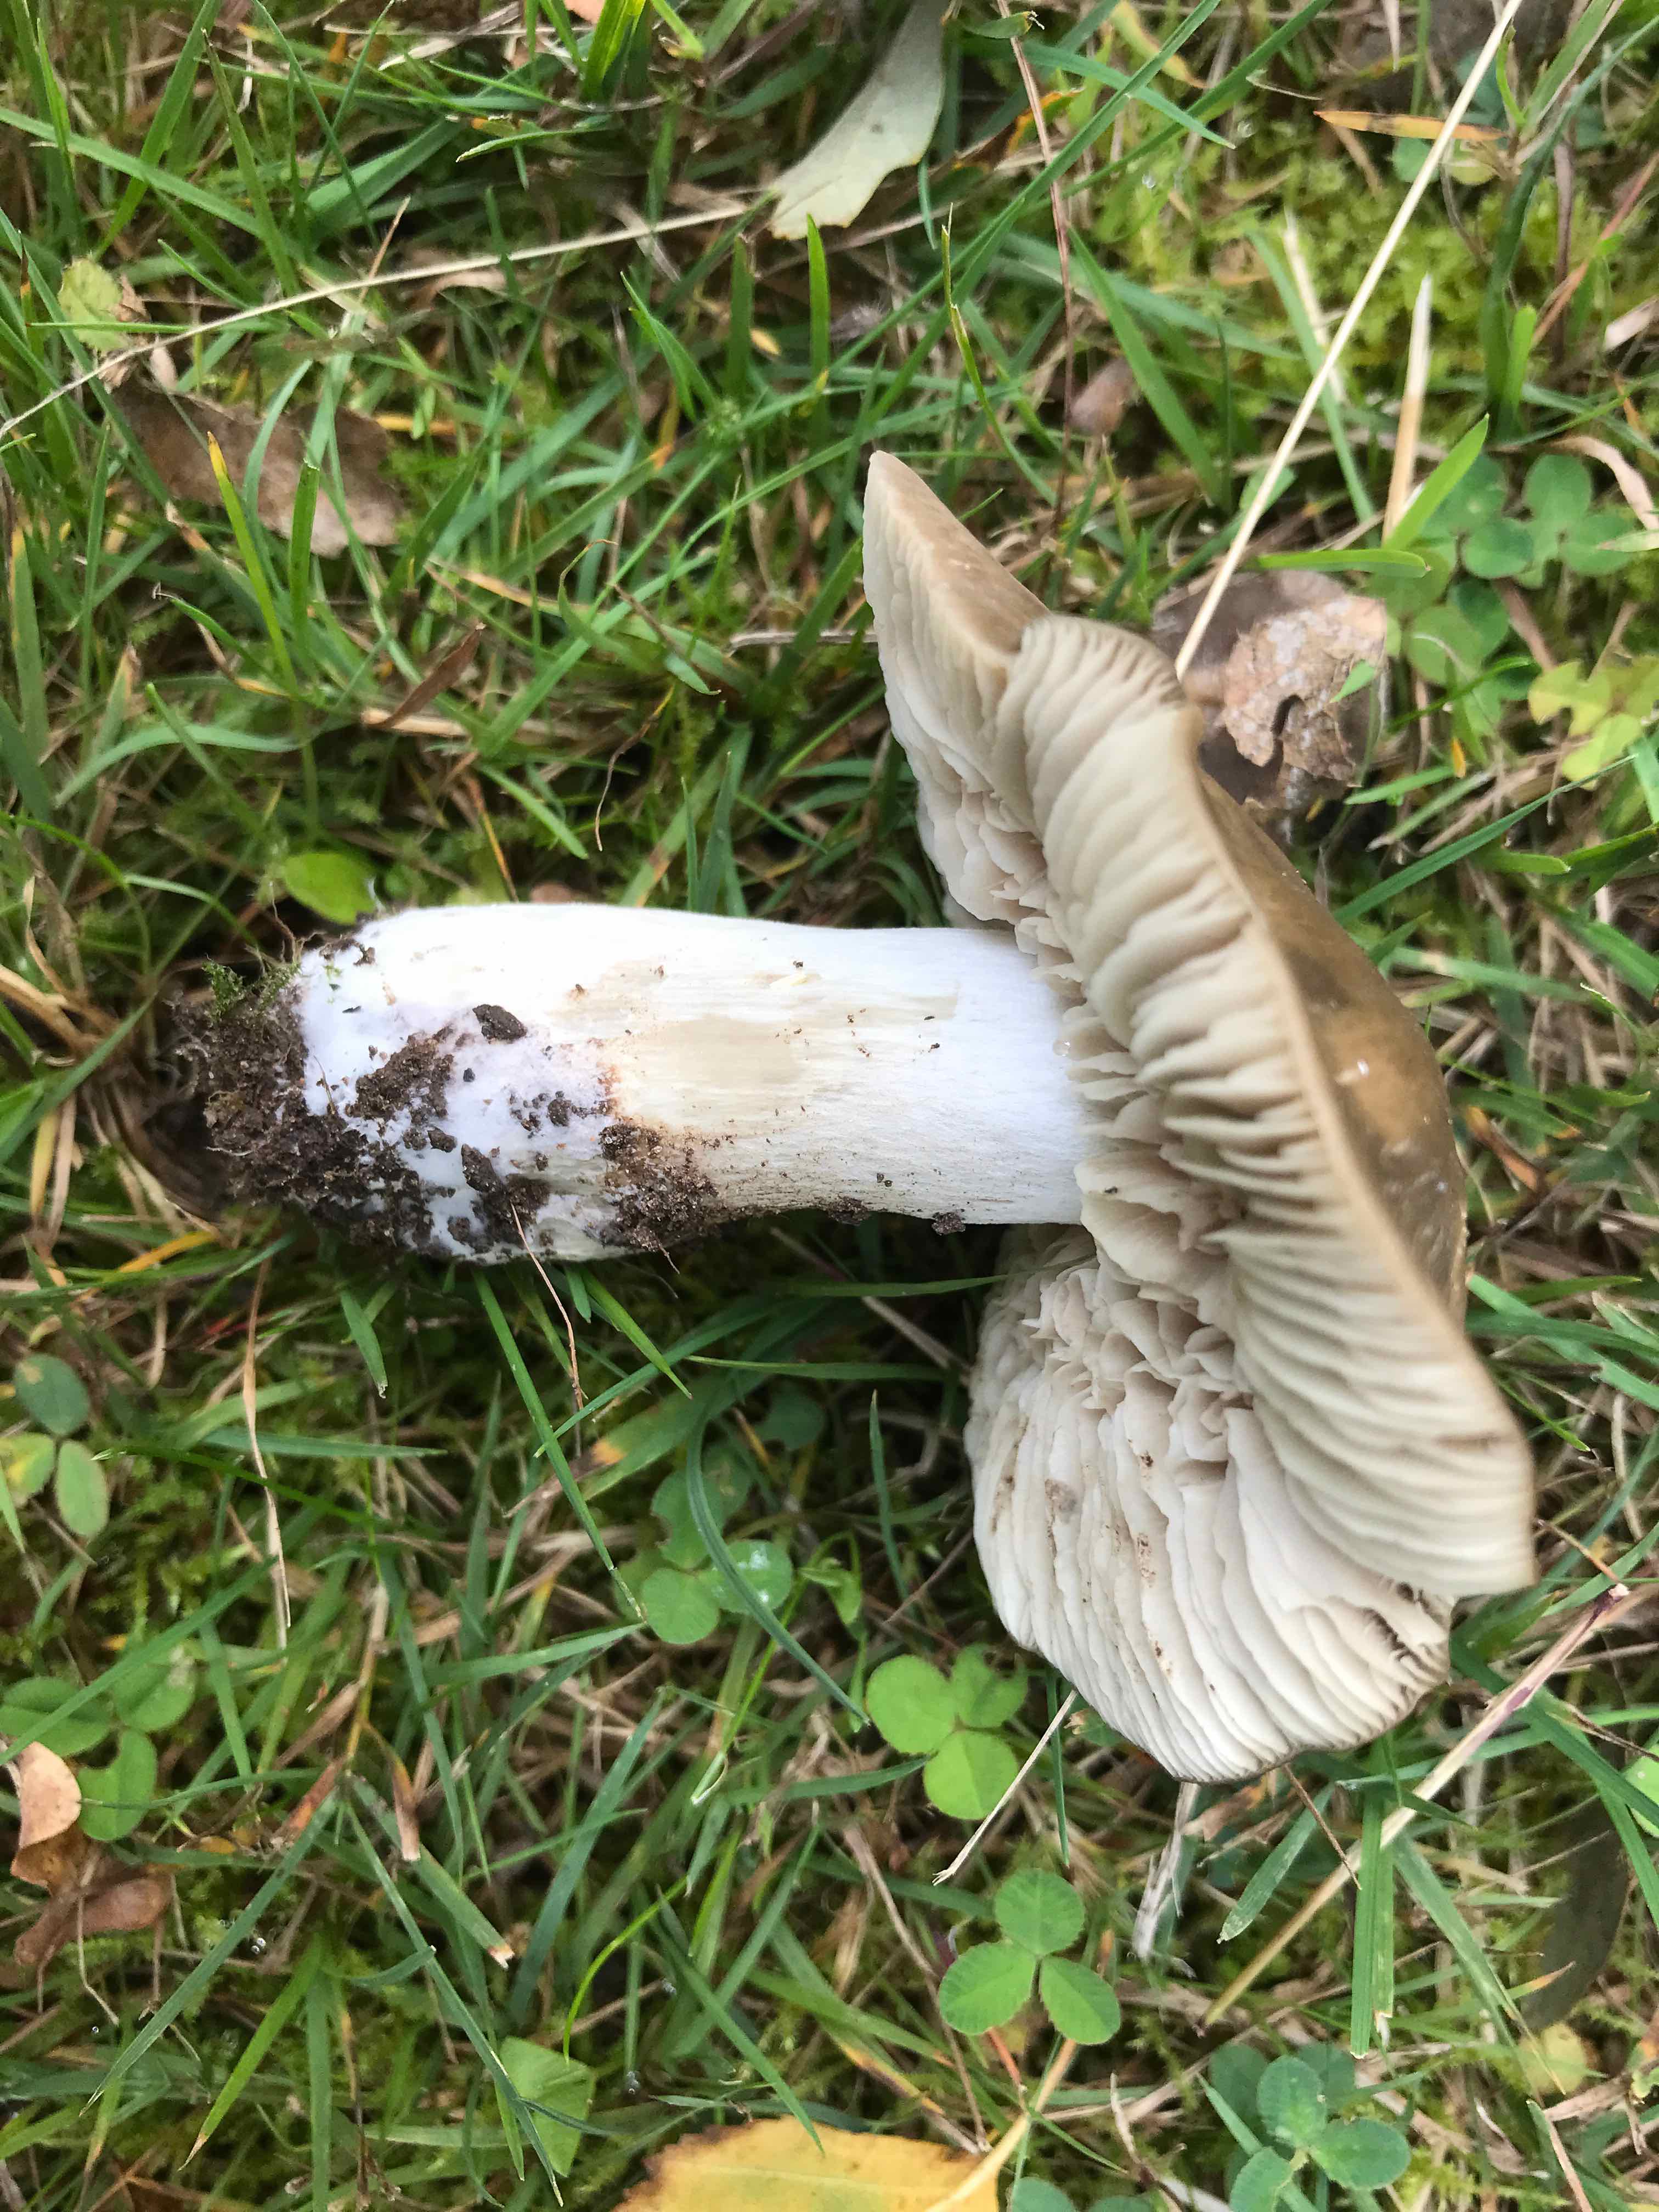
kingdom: Fungi
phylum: Basidiomycota
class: Agaricomycetes
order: Agaricales
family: Entolomataceae
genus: Entoloma
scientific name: Entoloma lividoalbum
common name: lysstokket rødblad
